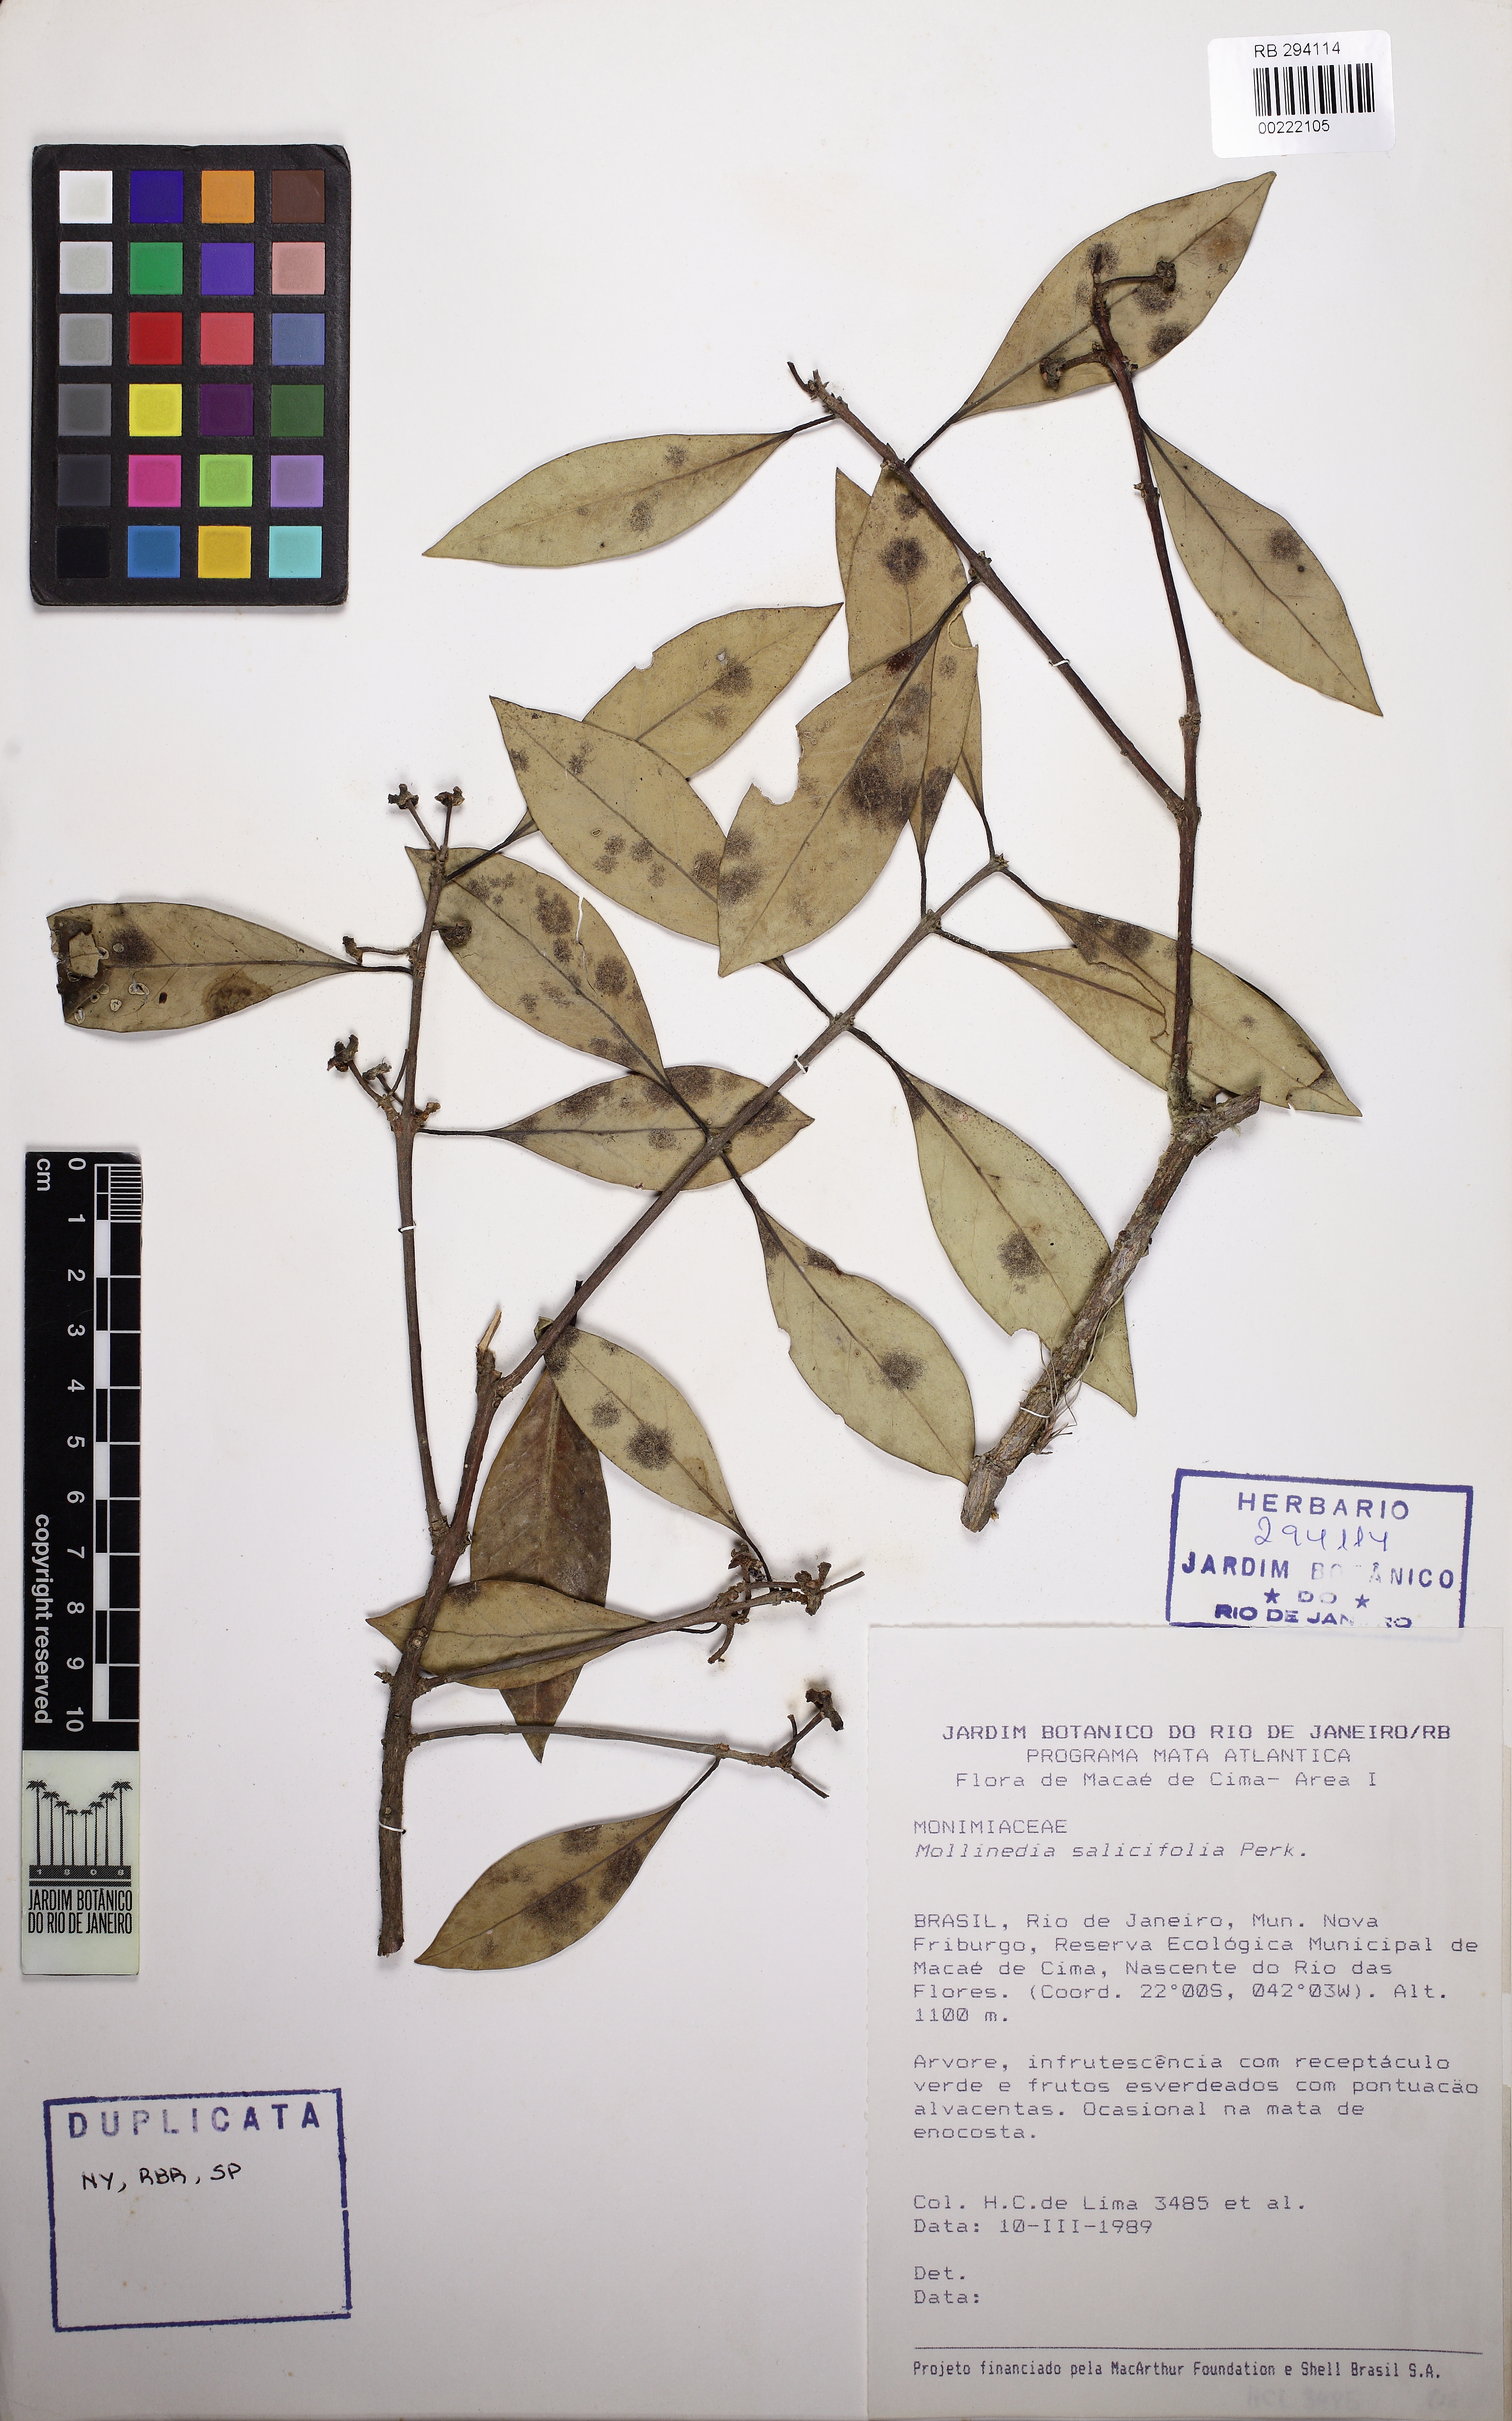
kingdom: Plantae
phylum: Tracheophyta
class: Magnoliopsida
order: Laurales
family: Monimiaceae
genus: Mollinedia
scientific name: Mollinedia salicifolia
